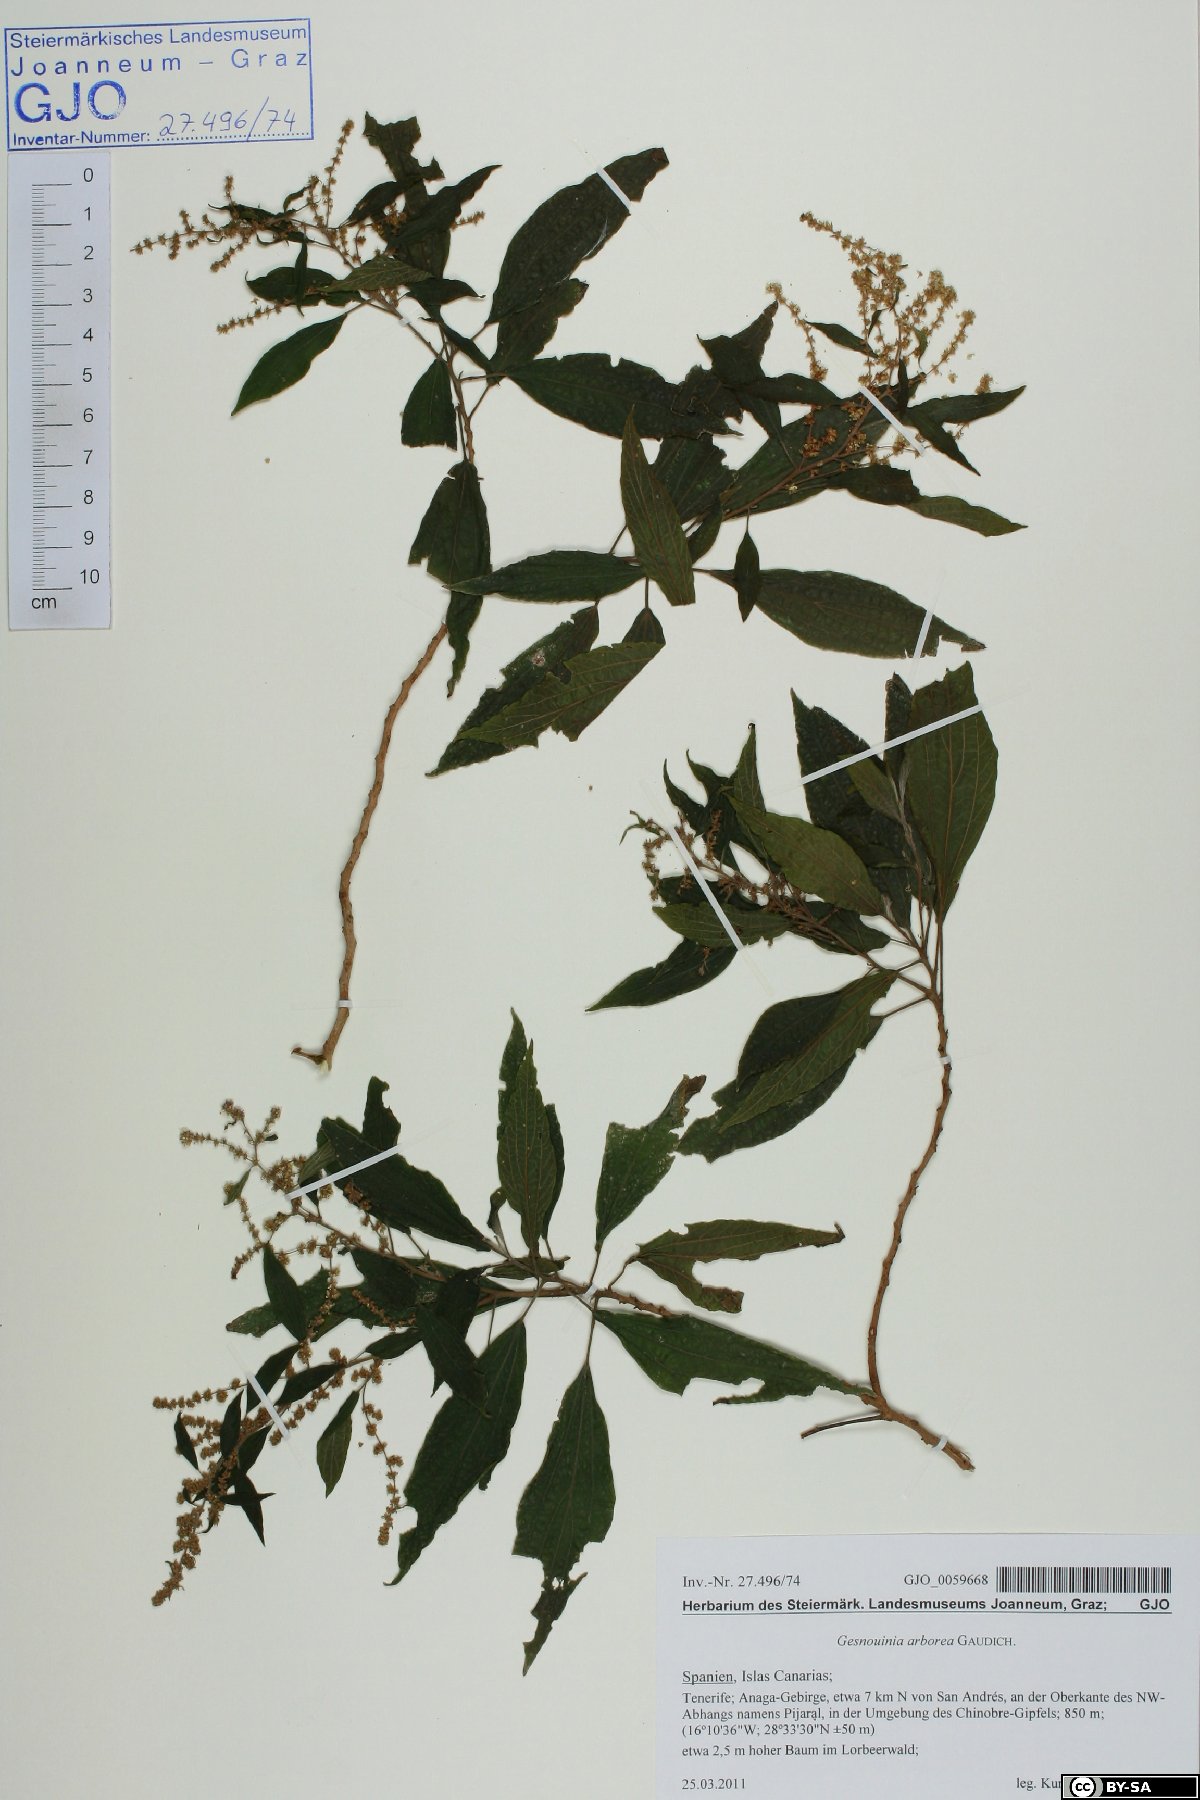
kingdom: Plantae
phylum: Tracheophyta
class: Magnoliopsida
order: Rosales
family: Urticaceae
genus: Gesnouinia
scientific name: Gesnouinia arborea
